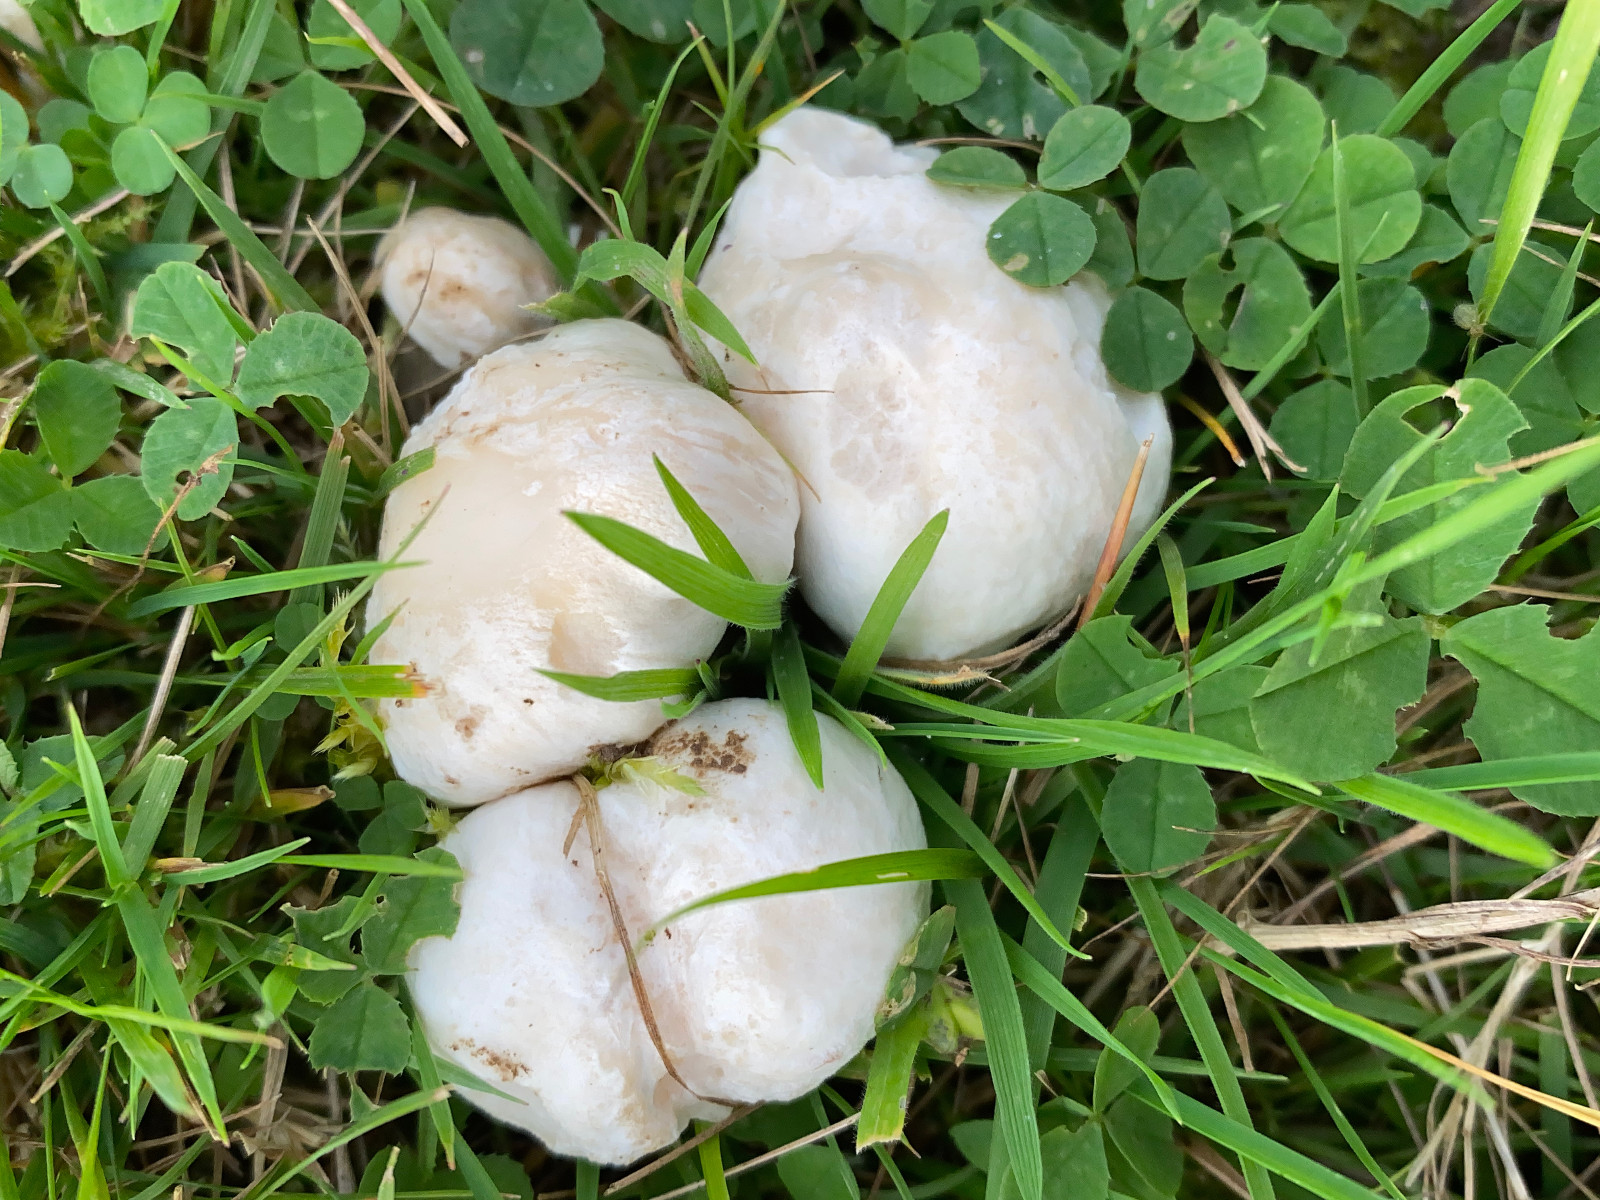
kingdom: Fungi
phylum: Basidiomycota
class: Agaricomycetes
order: Agaricales
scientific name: Agaricales
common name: champignonordenen
